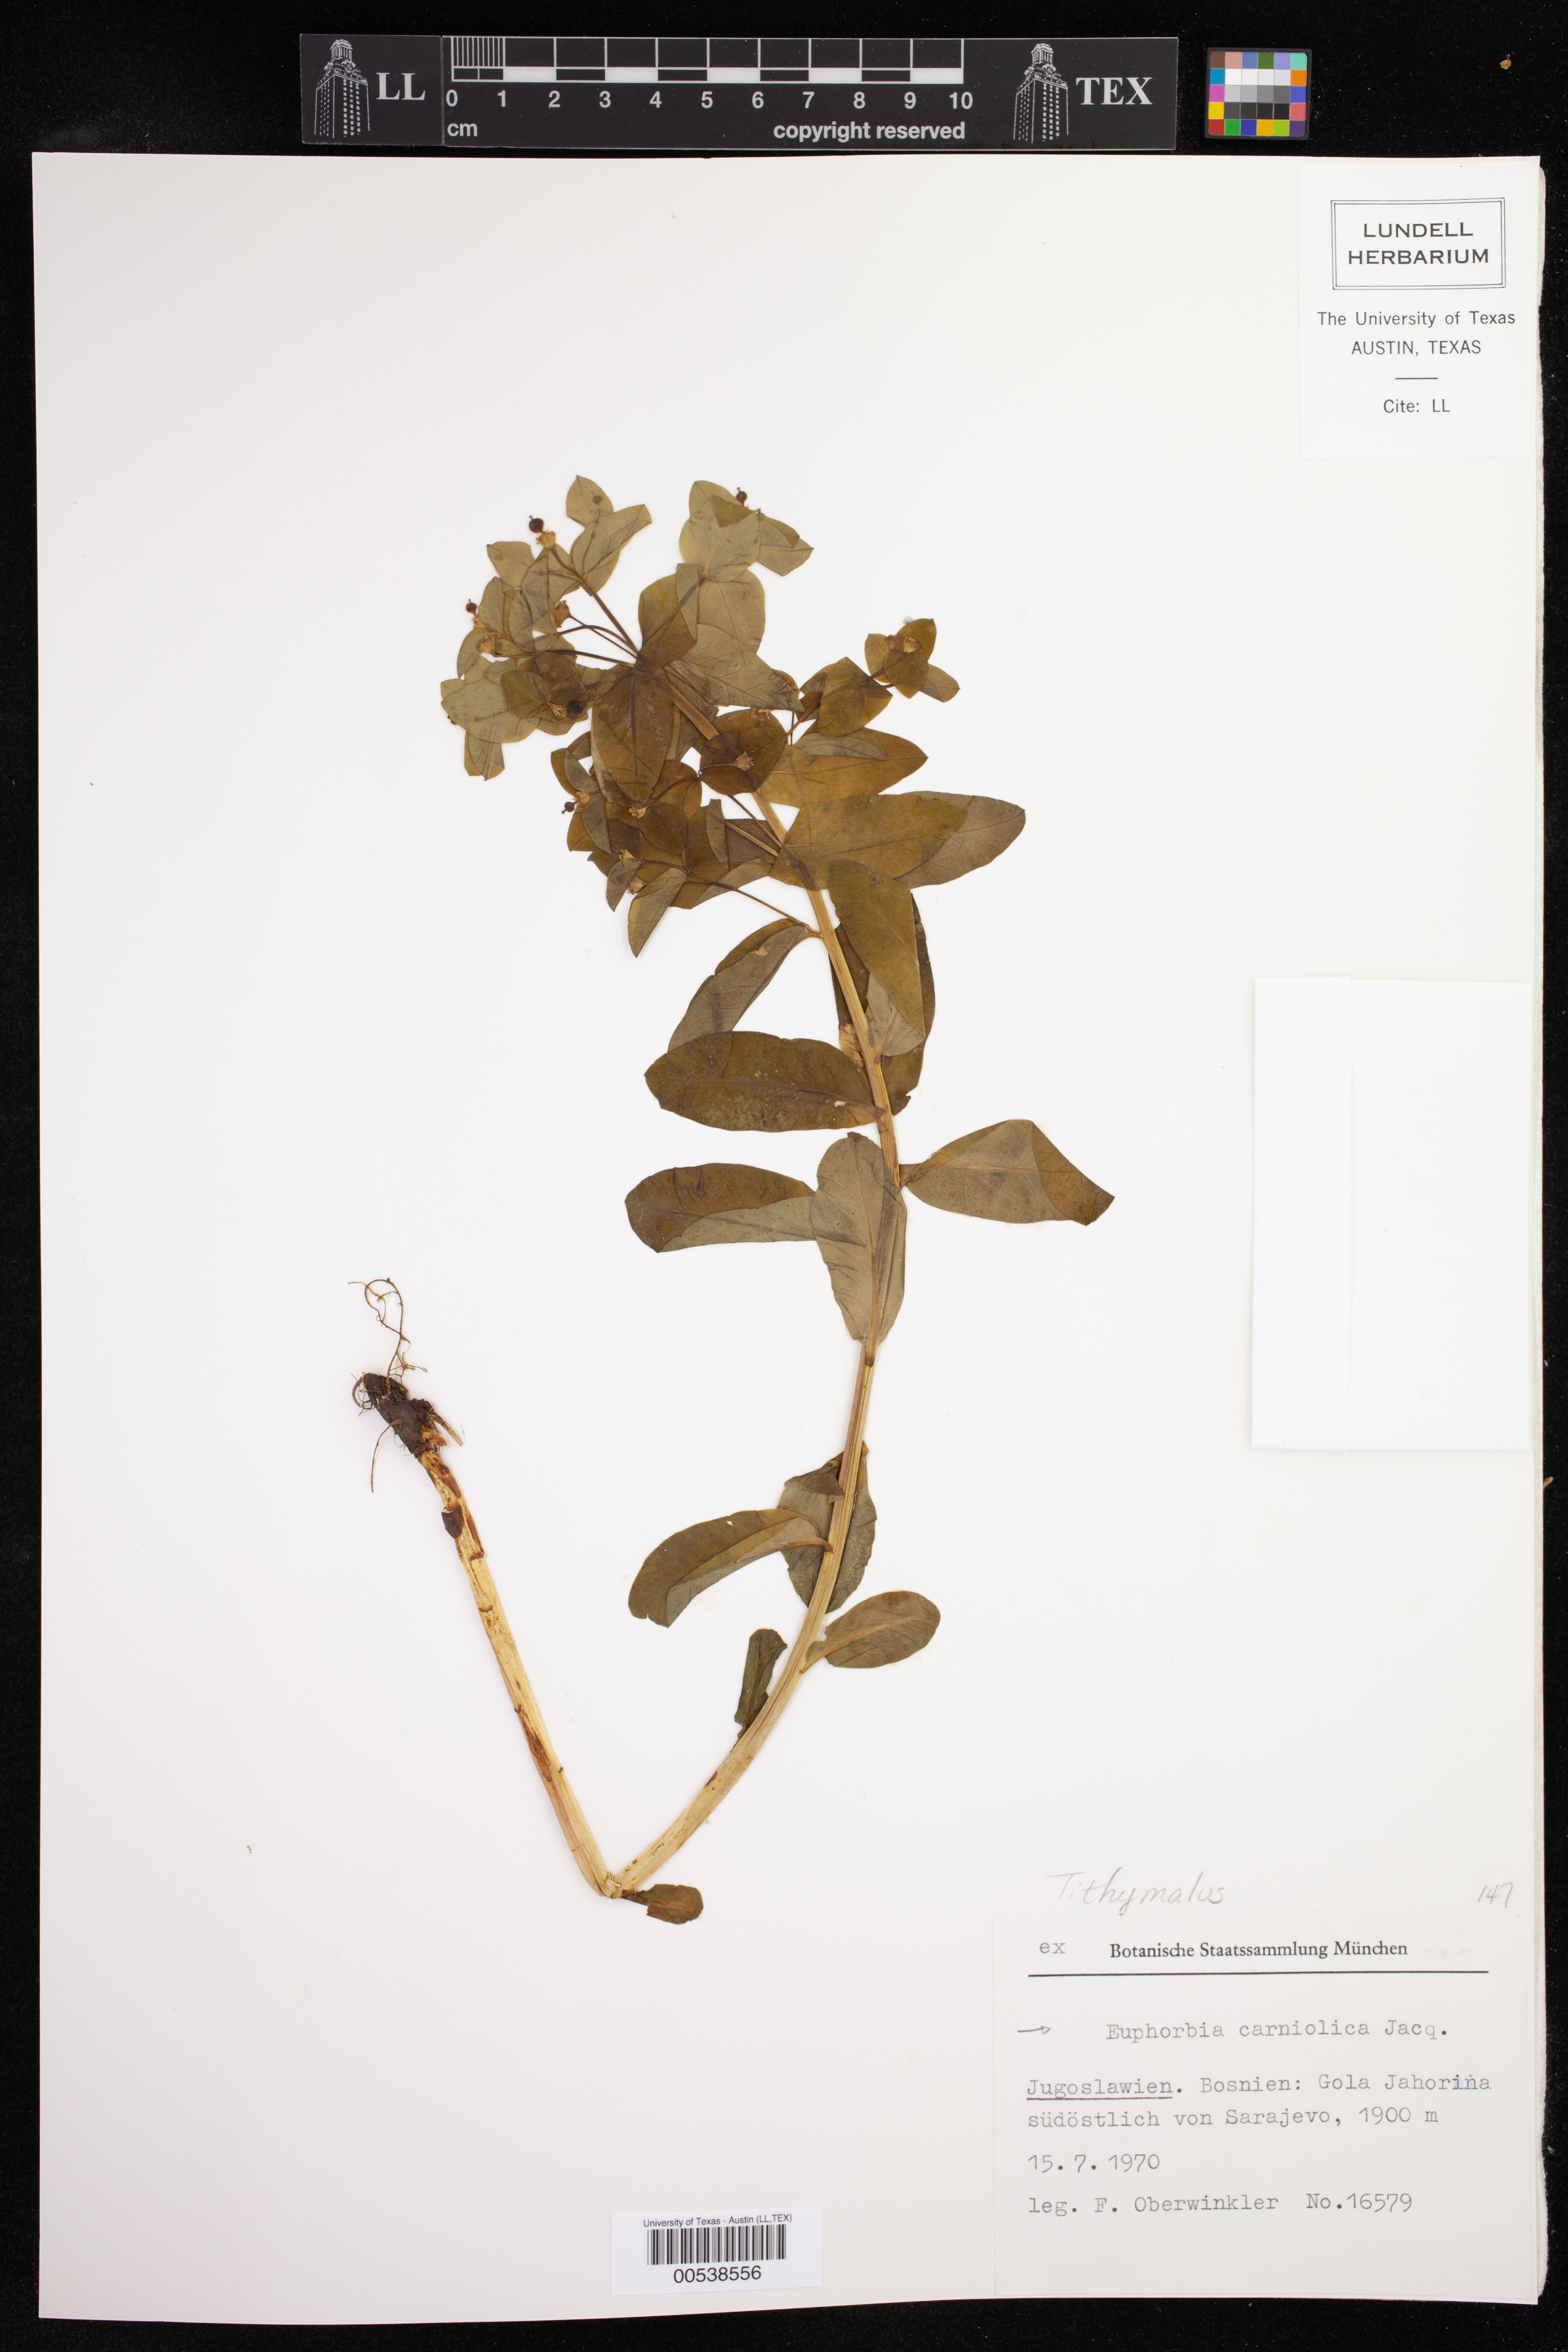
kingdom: Plantae
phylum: Tracheophyta
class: Magnoliopsida
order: Malpighiales
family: Euphorbiaceae
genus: Euphorbia
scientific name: Euphorbia carniolica
